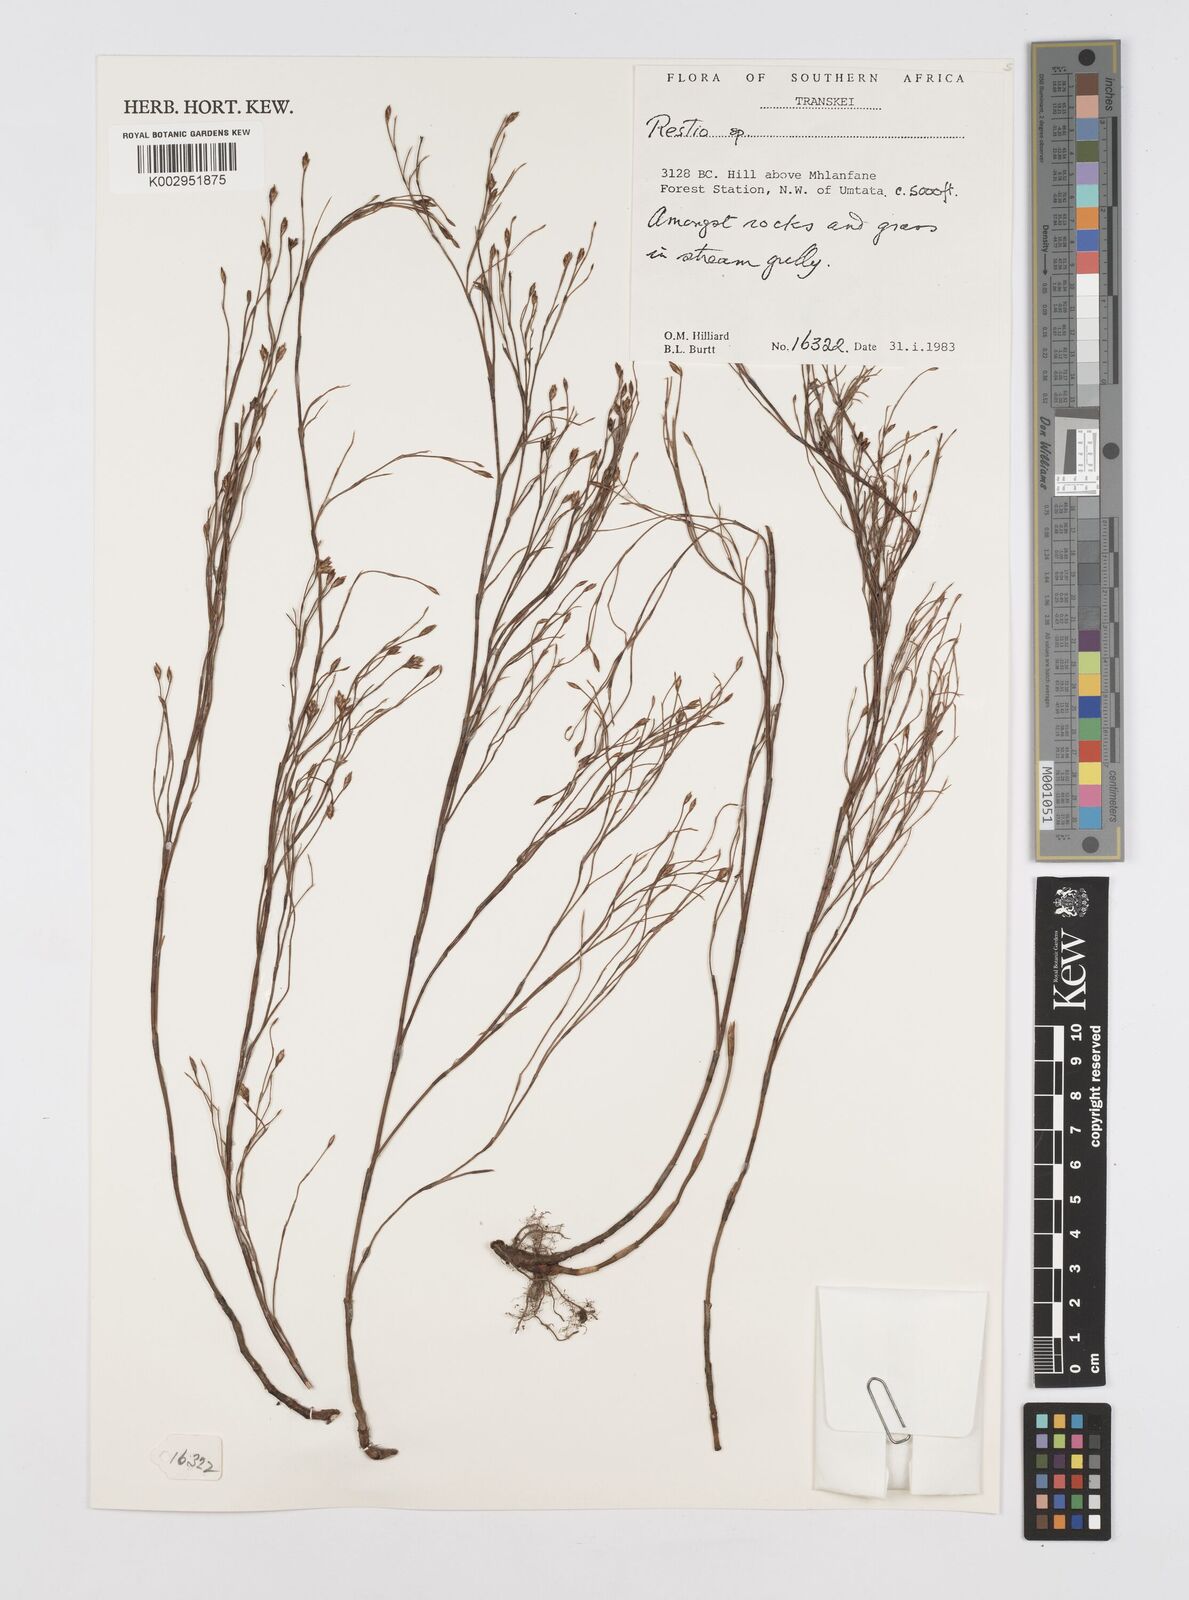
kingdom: Plantae
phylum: Tracheophyta
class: Liliopsida
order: Poales
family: Restionaceae
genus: Restio
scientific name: Restio
